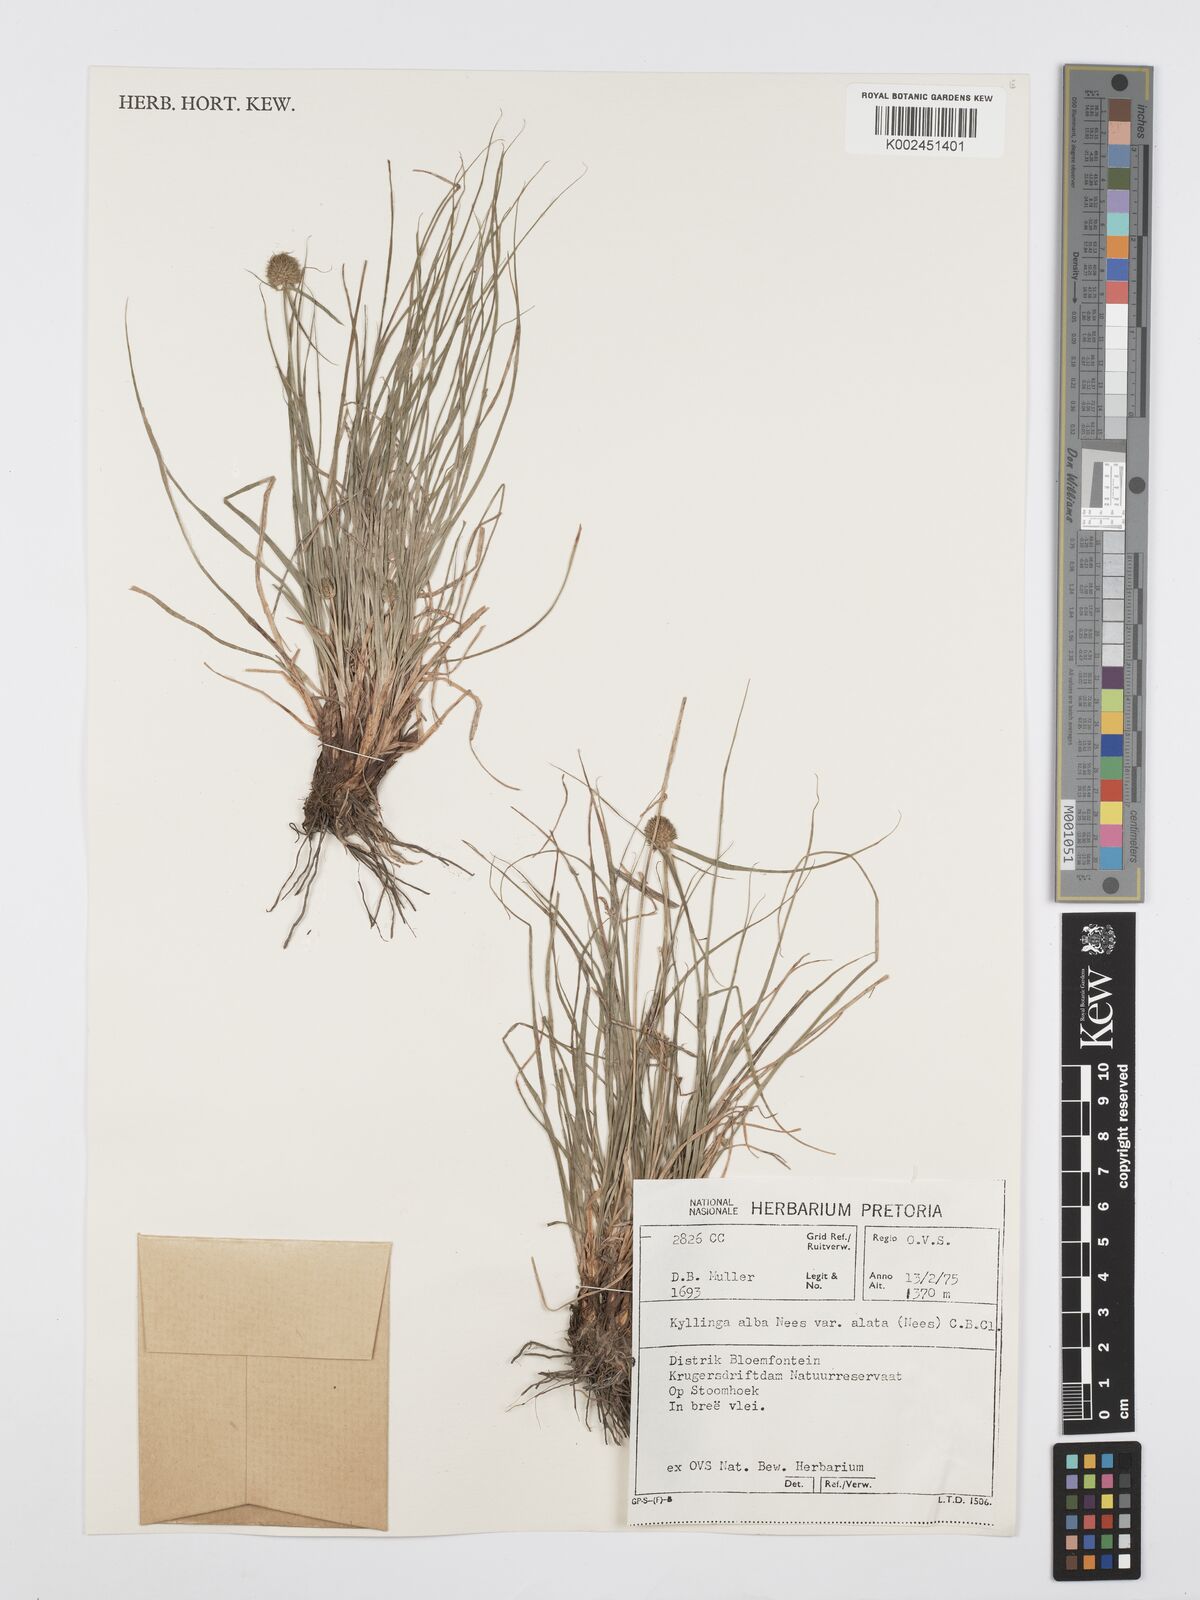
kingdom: Plantae
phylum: Tracheophyta
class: Liliopsida
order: Poales
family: Cyperaceae
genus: Cyperus
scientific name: Cyperus alatus
